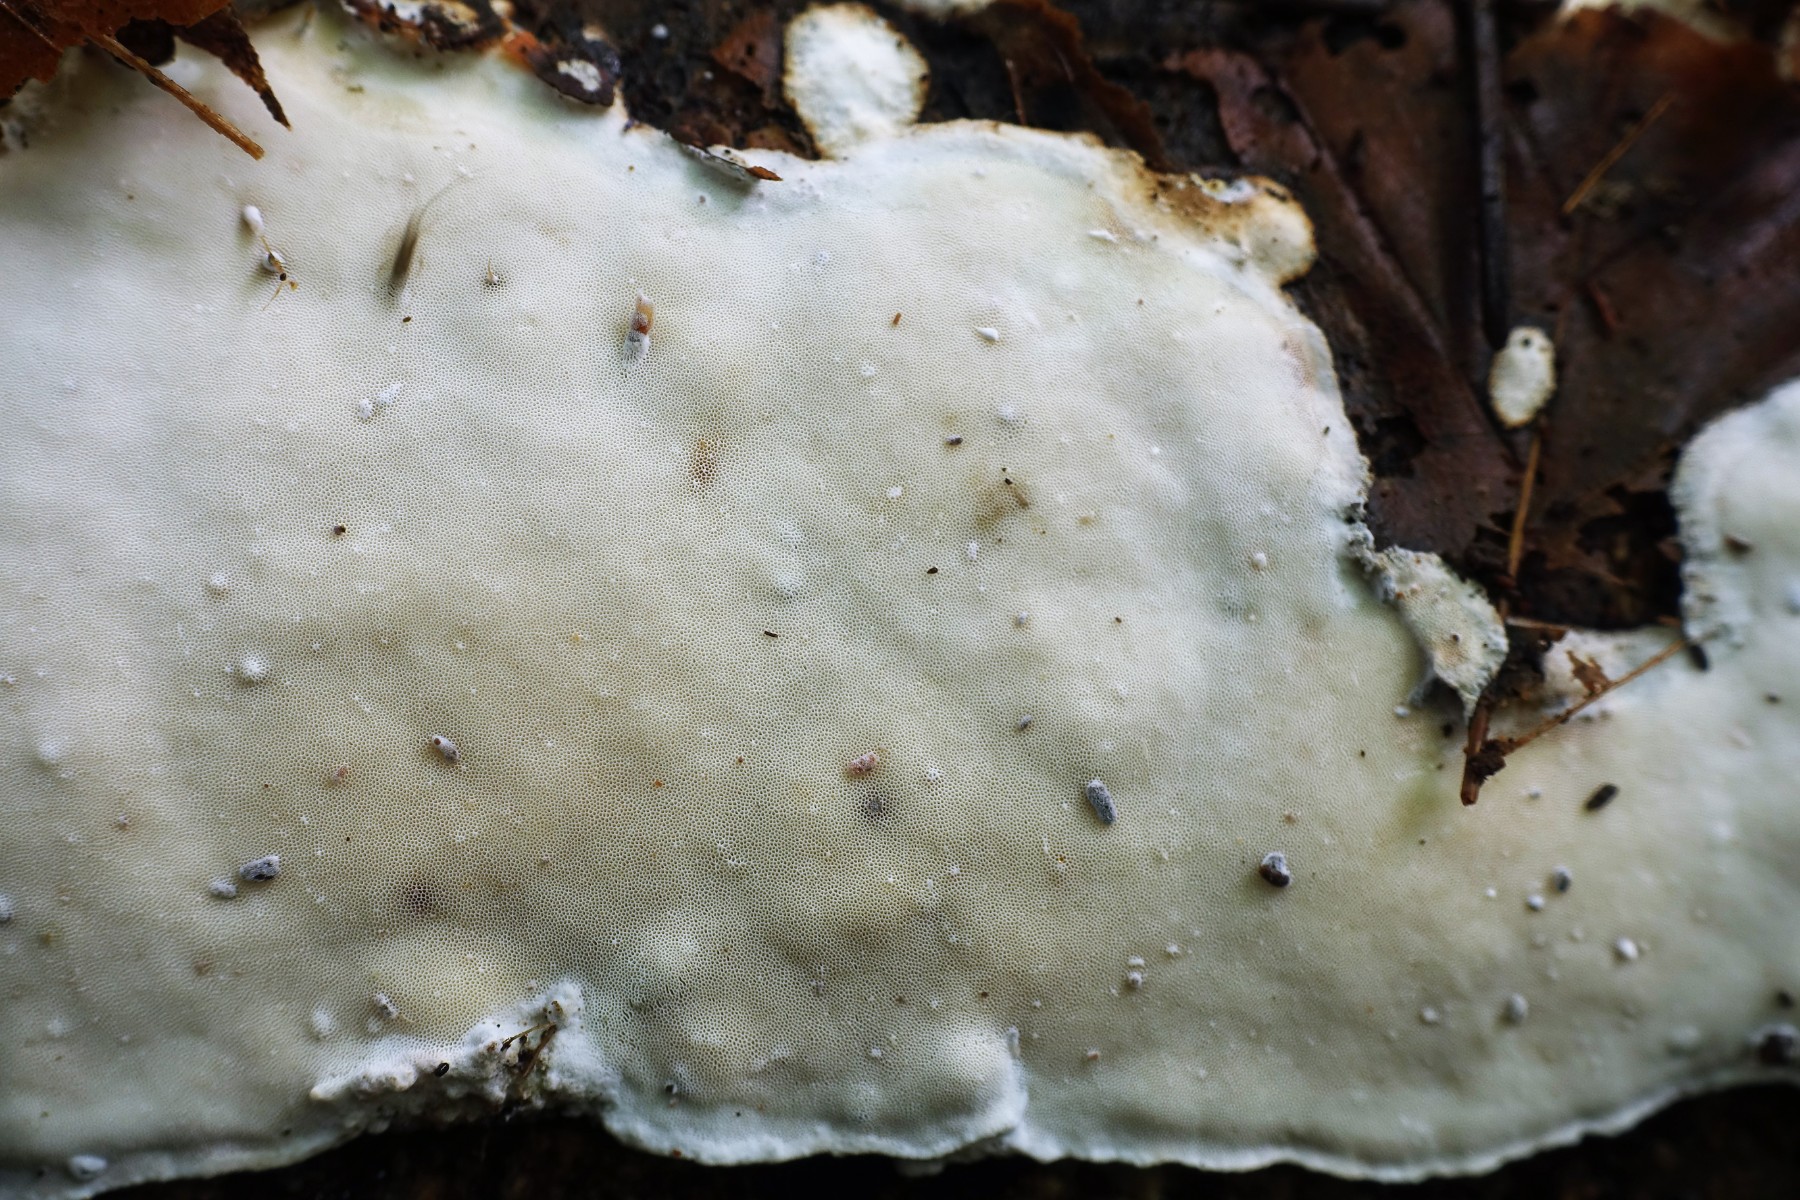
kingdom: Fungi
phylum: Basidiomycota
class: Agaricomycetes
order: Polyporales
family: Incrustoporiaceae
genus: Skeletocutis
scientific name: Skeletocutis nemoralis
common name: stor krystalporesvamp
